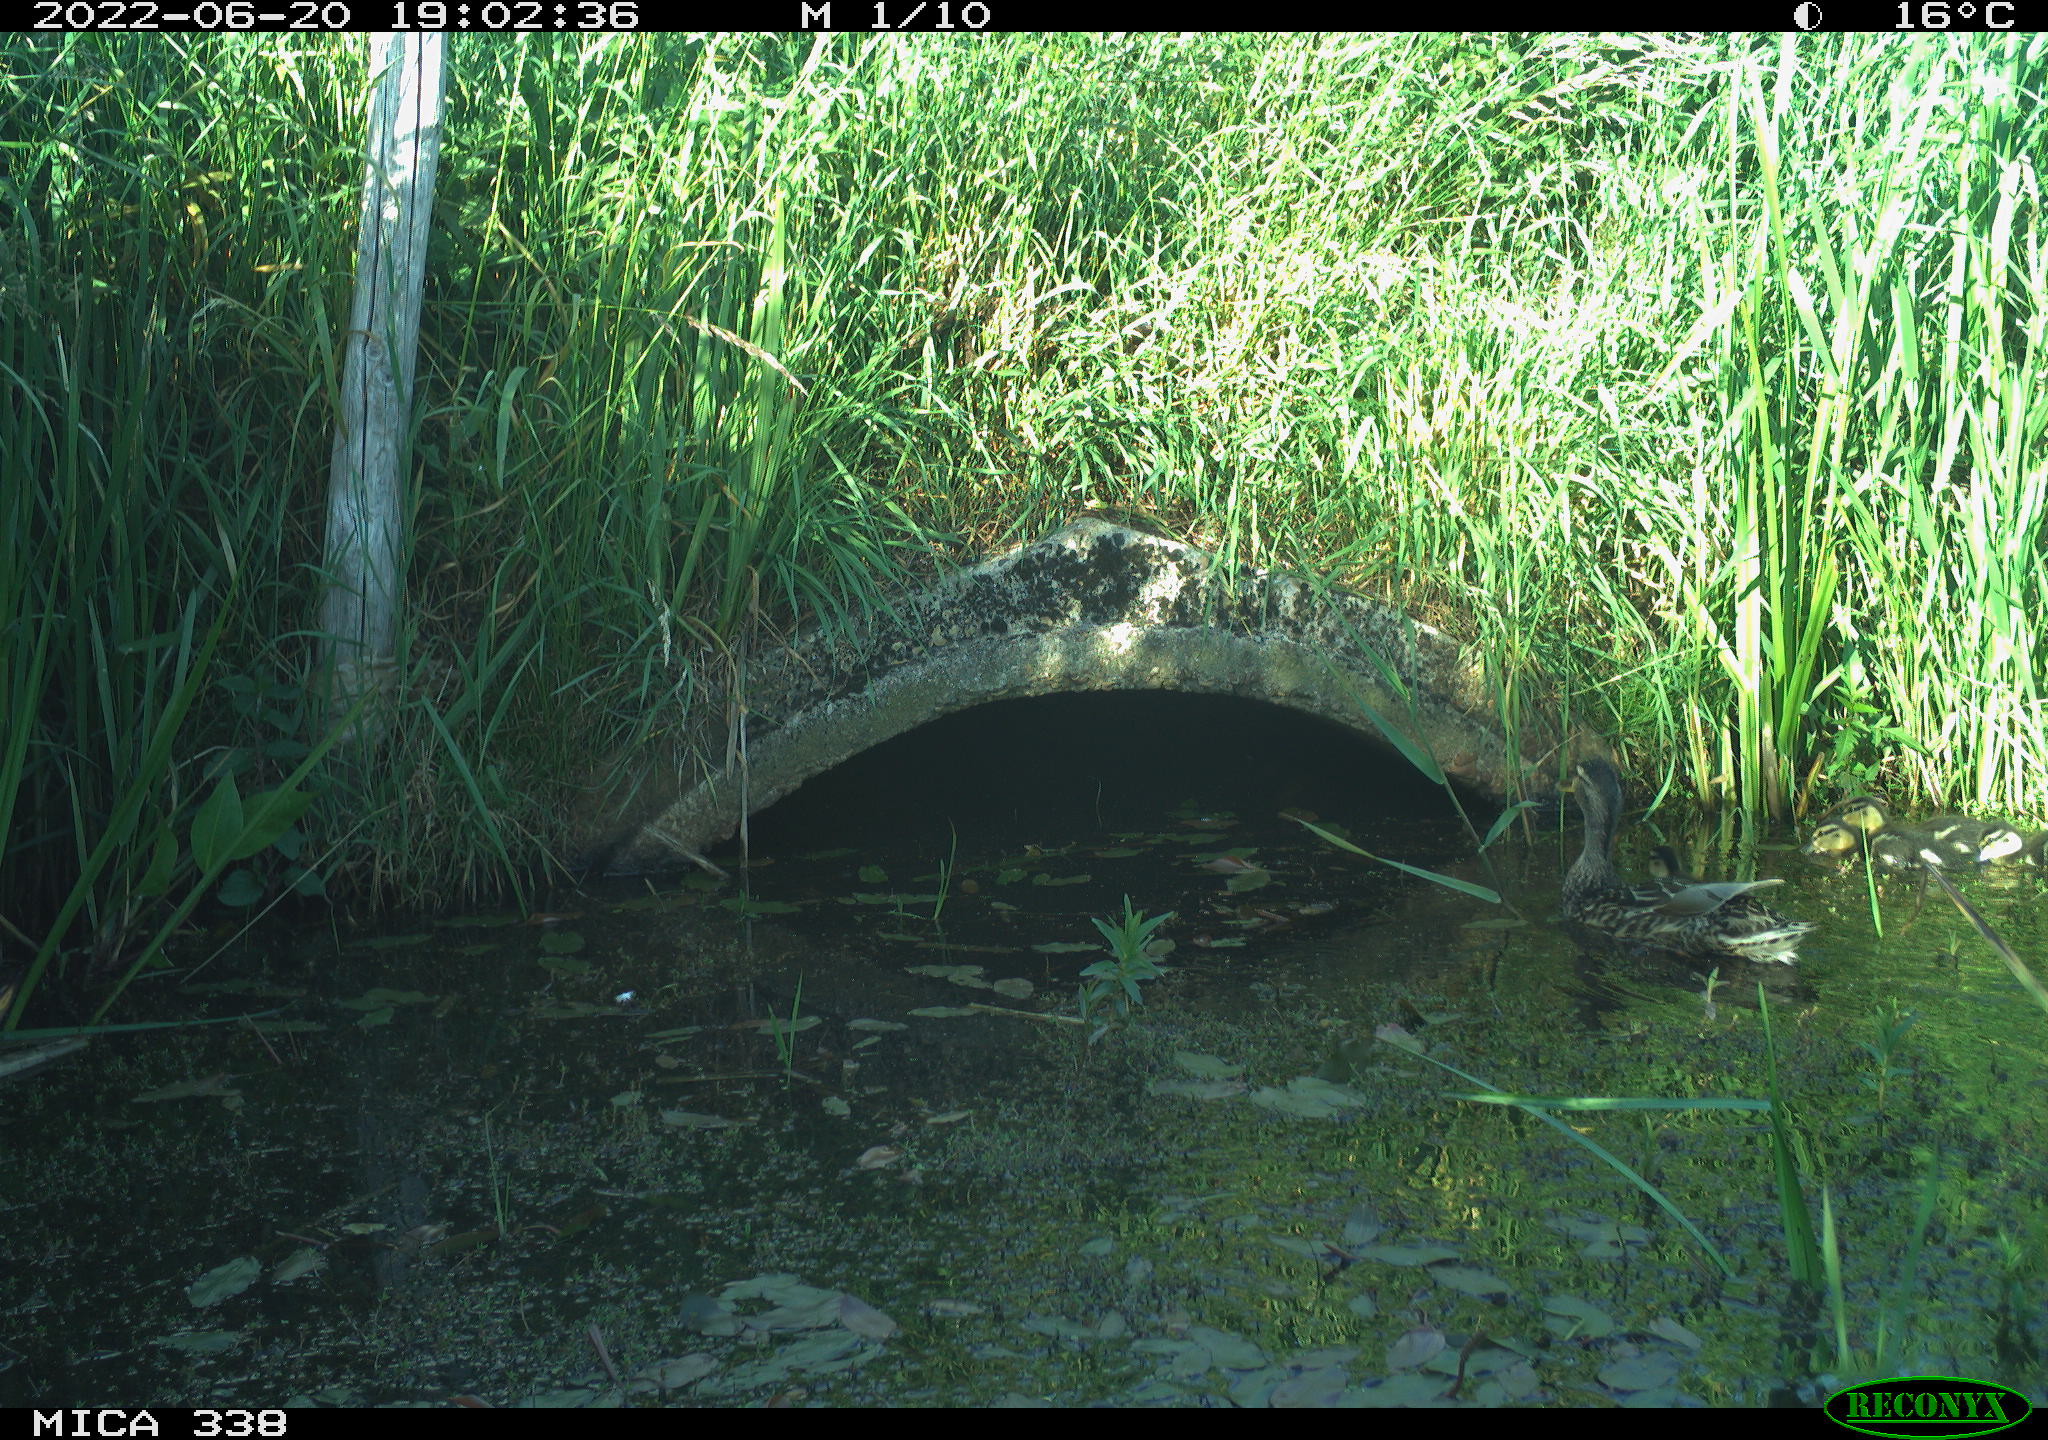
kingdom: Animalia
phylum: Chordata
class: Aves
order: Anseriformes
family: Anatidae
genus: Anas
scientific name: Anas platyrhynchos
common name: Mallard
